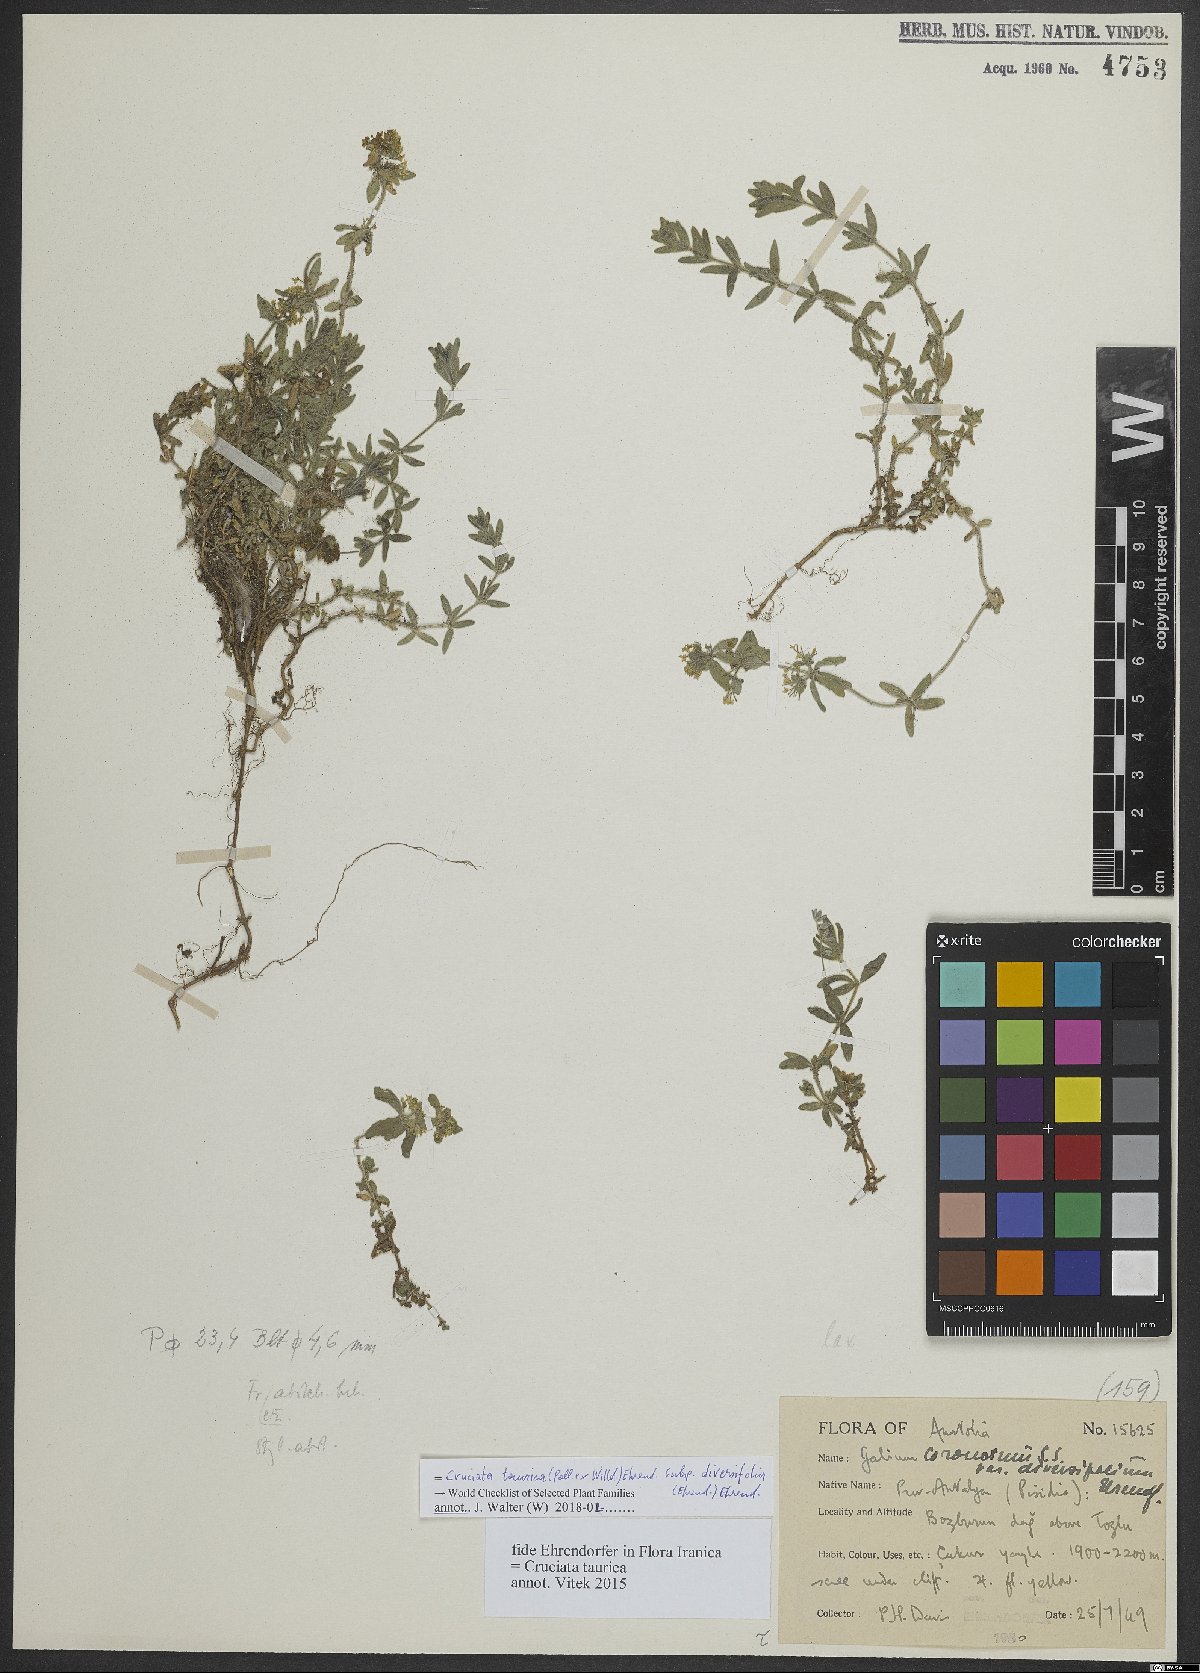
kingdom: Plantae
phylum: Tracheophyta
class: Magnoliopsida
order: Gentianales
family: Rubiaceae
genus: Cruciata
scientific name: Cruciata taurica
